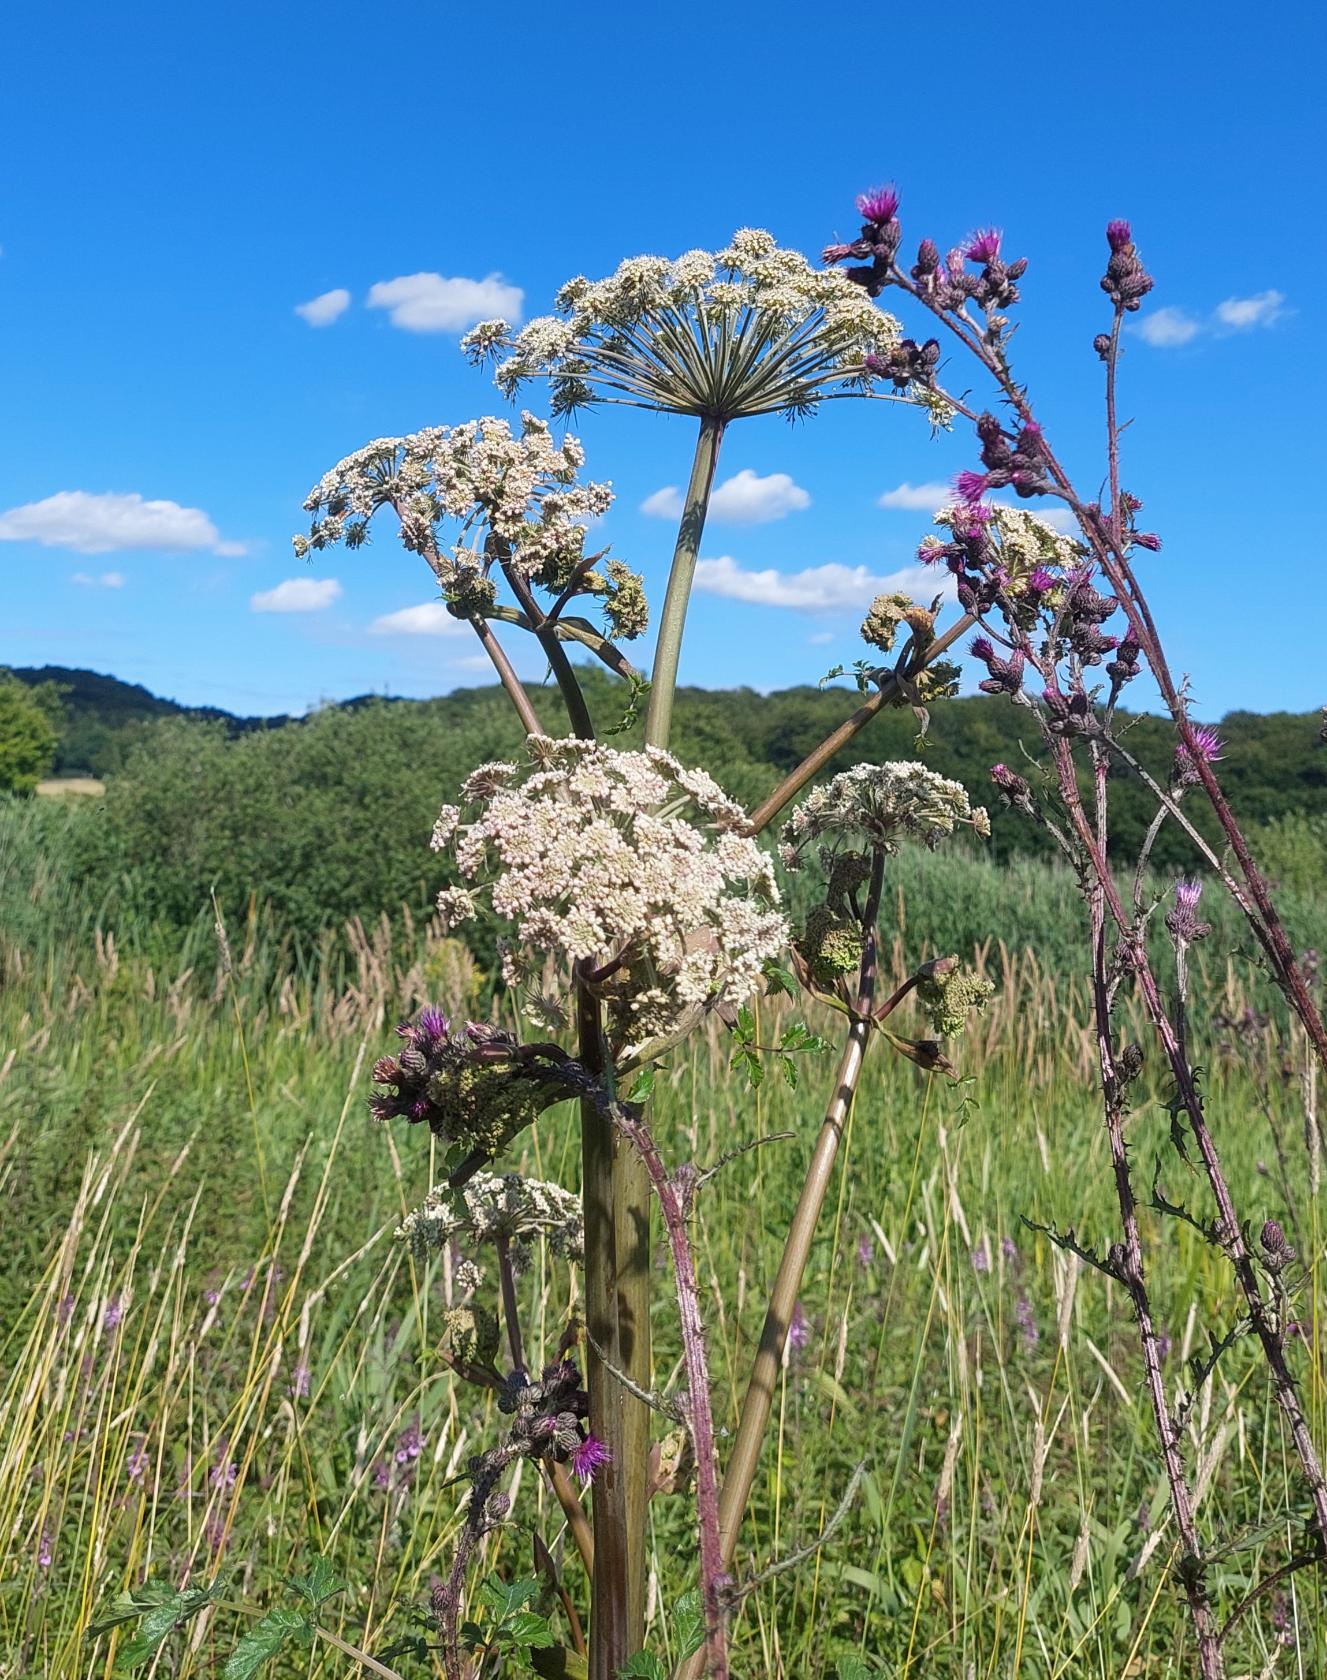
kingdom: Plantae
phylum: Tracheophyta
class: Magnoliopsida
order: Apiales
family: Apiaceae
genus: Angelica
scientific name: Angelica sylvestris
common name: Angelik
